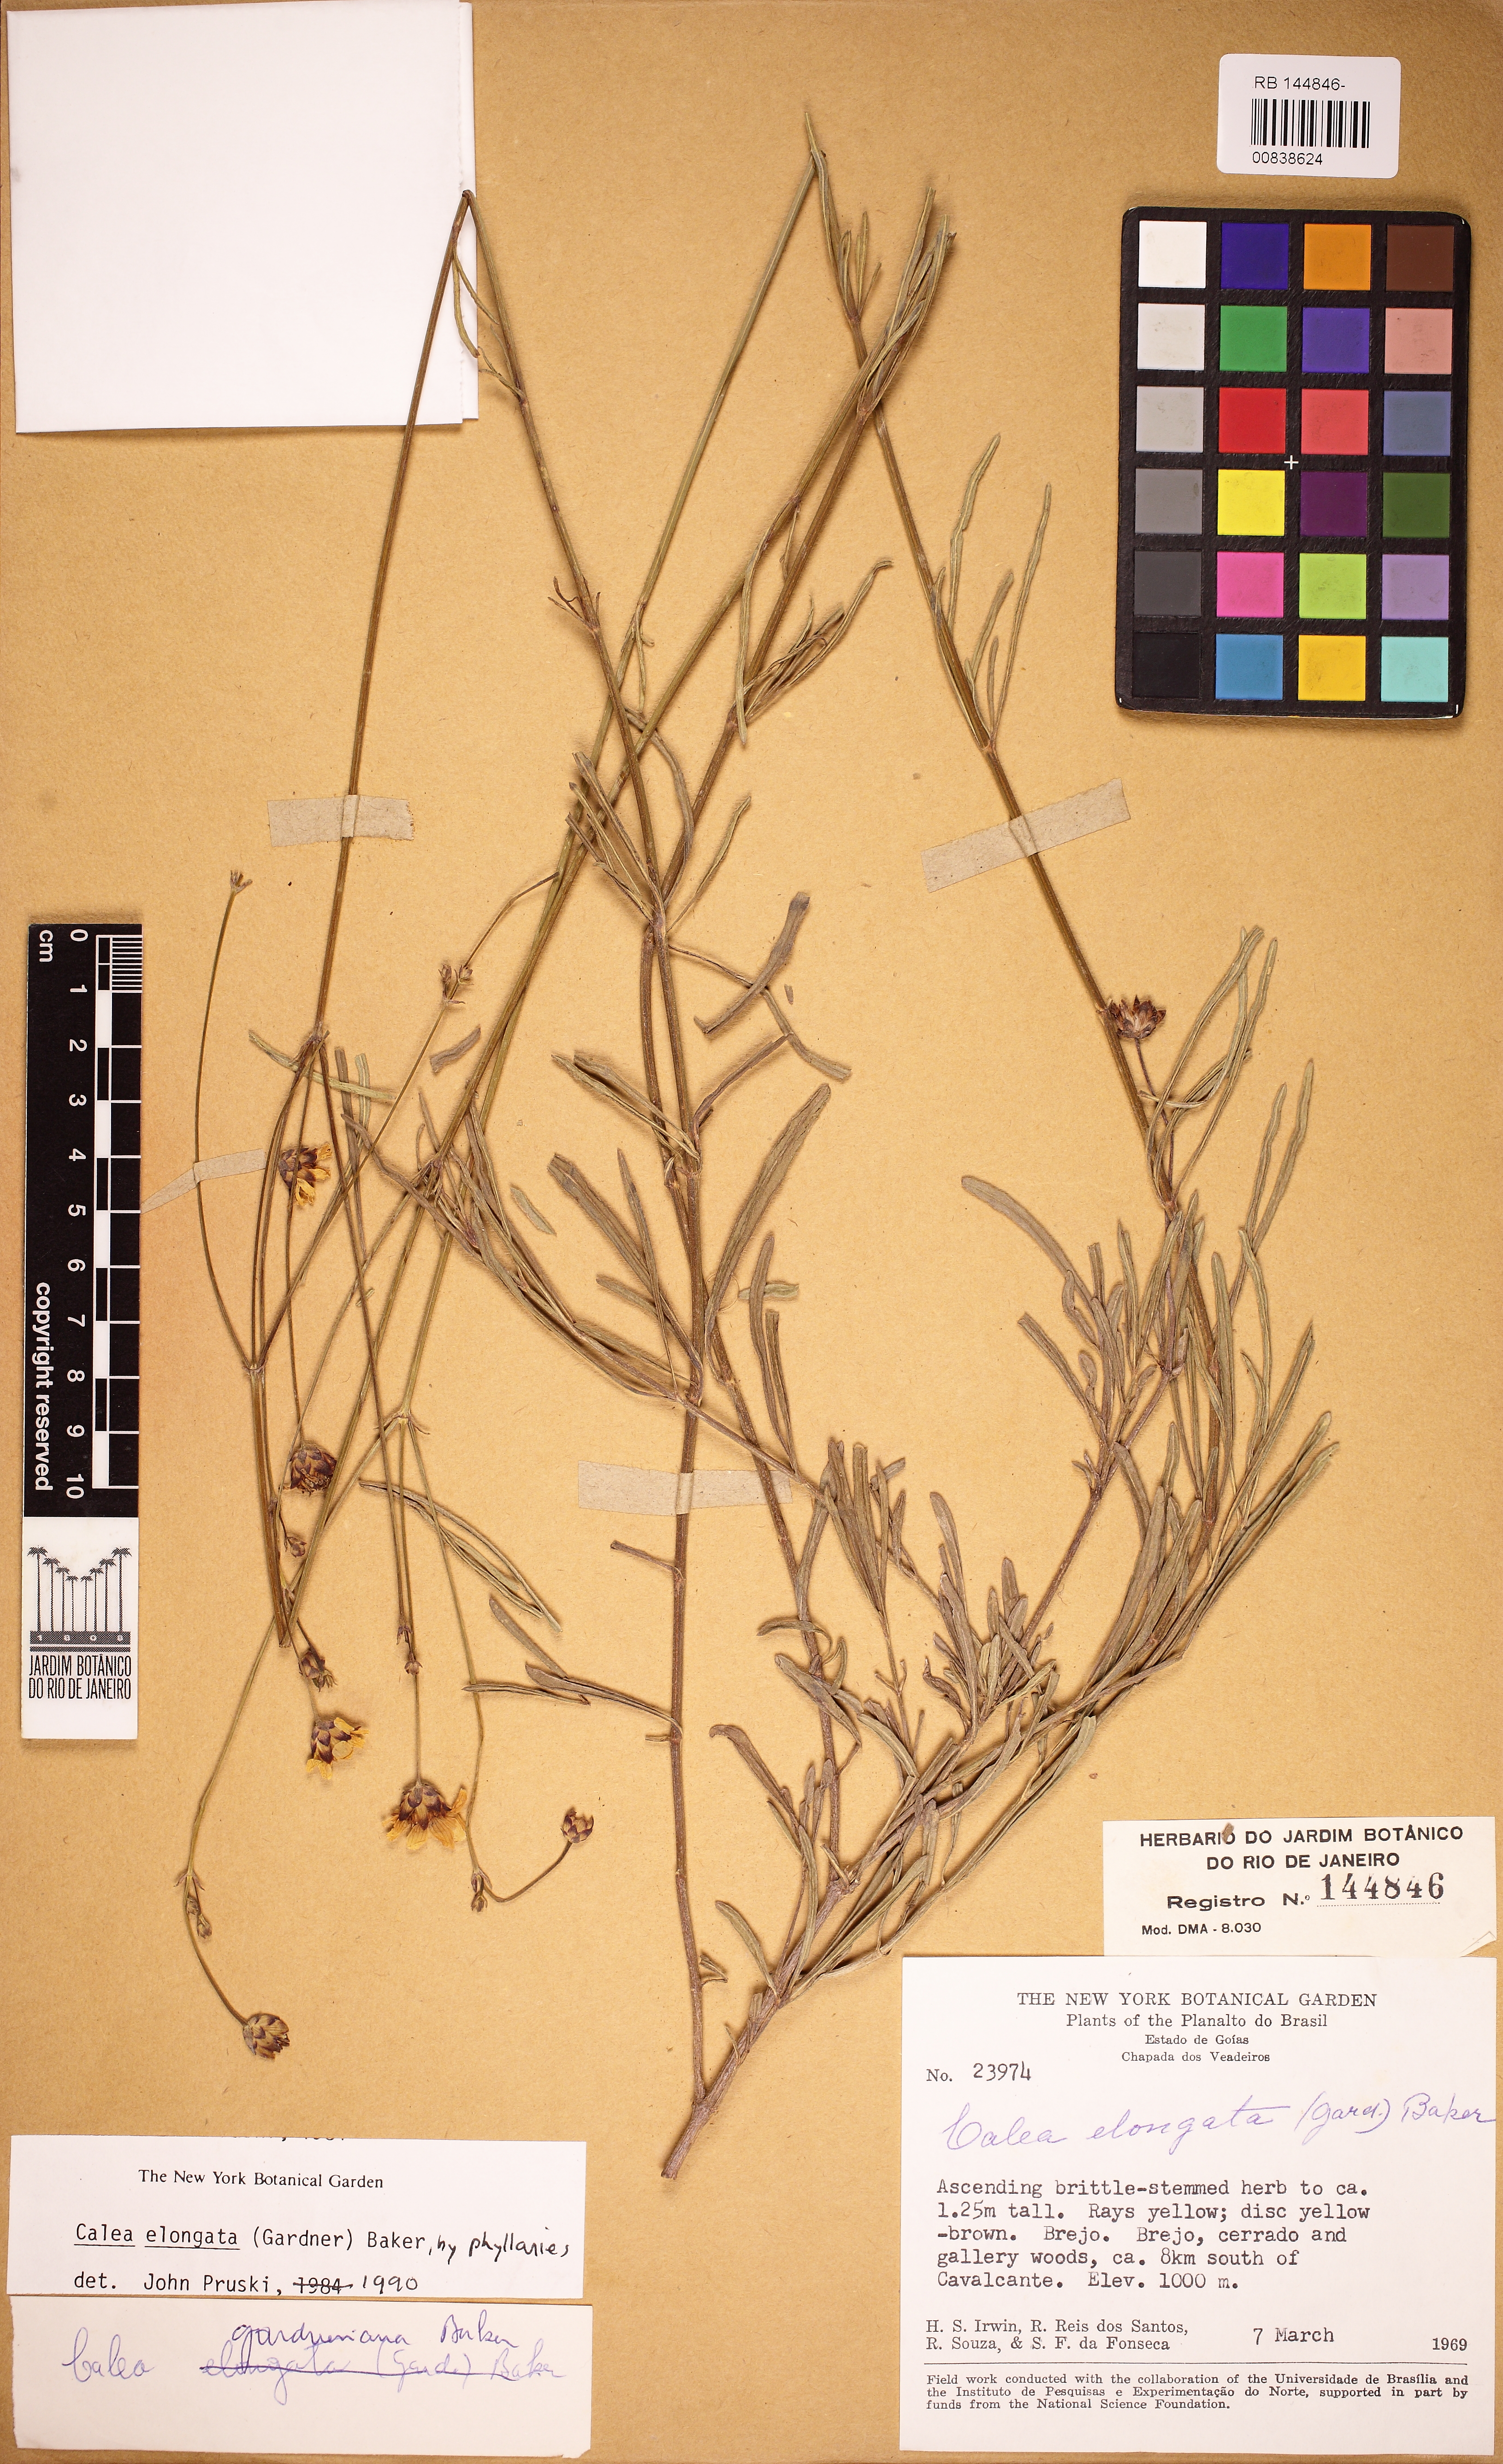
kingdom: Plantae
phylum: Tracheophyta
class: Magnoliopsida
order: Asterales
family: Asteraceae
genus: Calea
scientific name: Calea elongata
